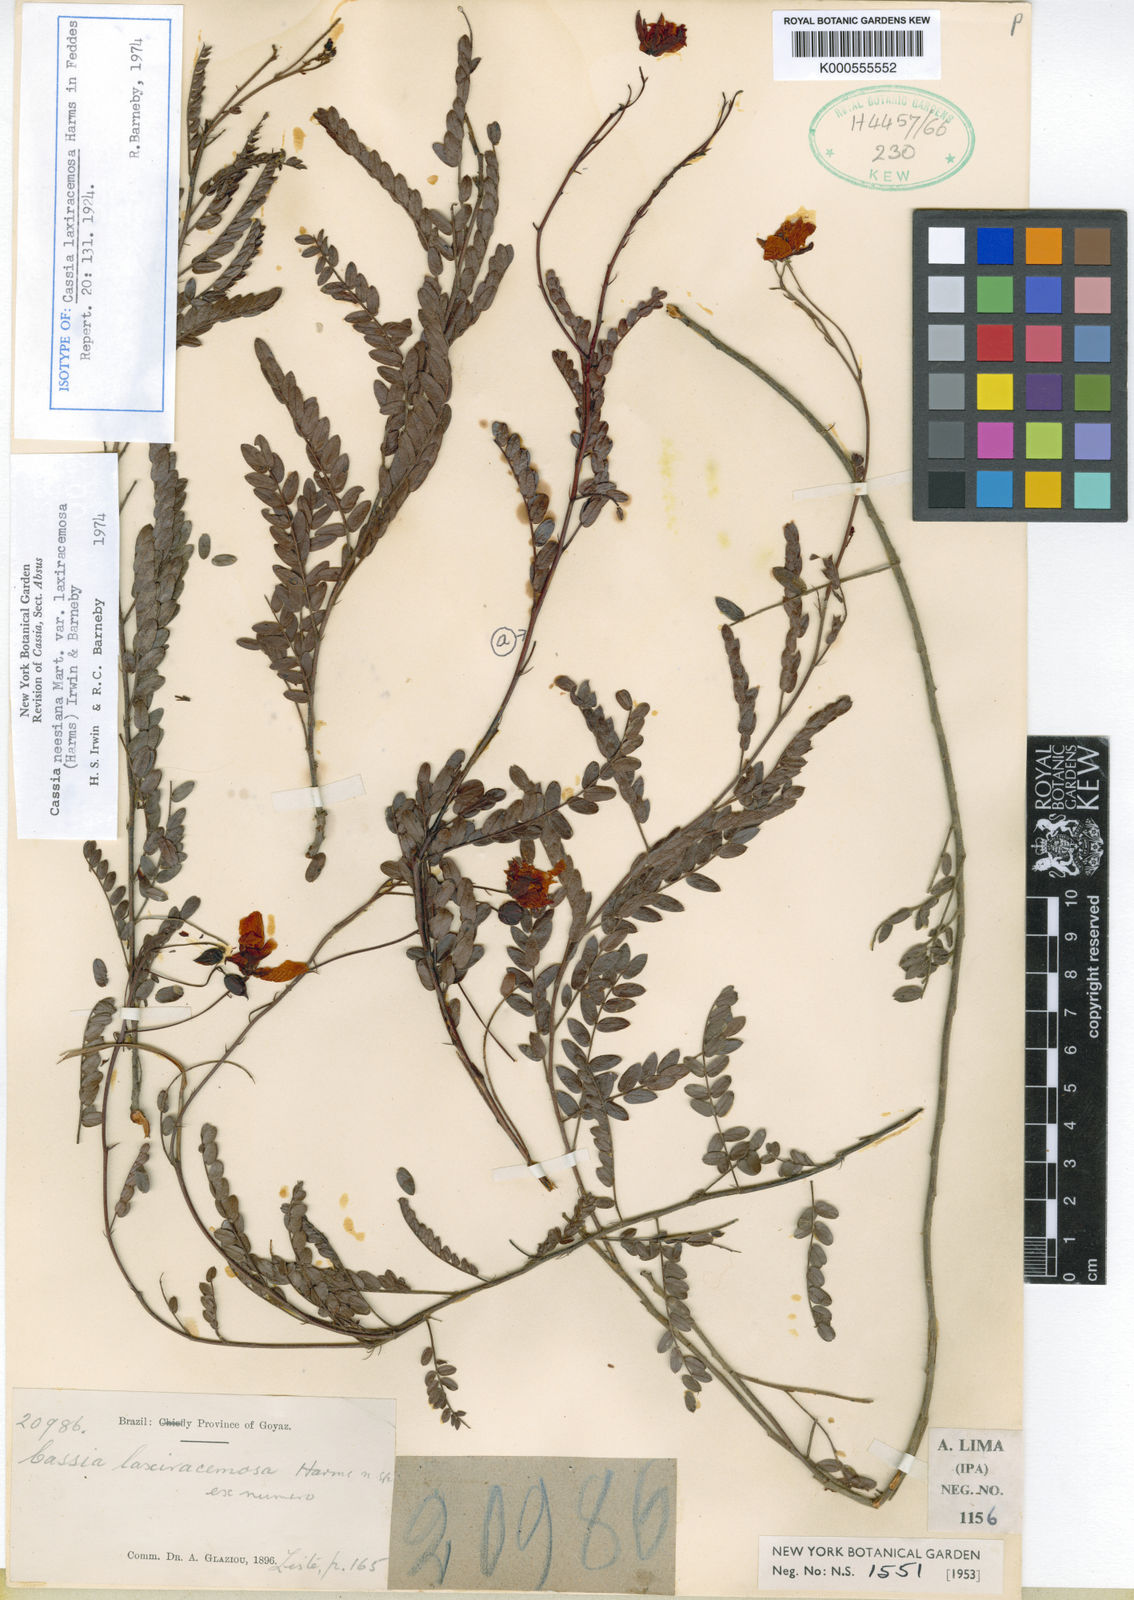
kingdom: Plantae
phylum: Tracheophyta
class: Magnoliopsida
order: Fabales
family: Fabaceae
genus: Chamaecrista
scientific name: Chamaecrista neesiana
